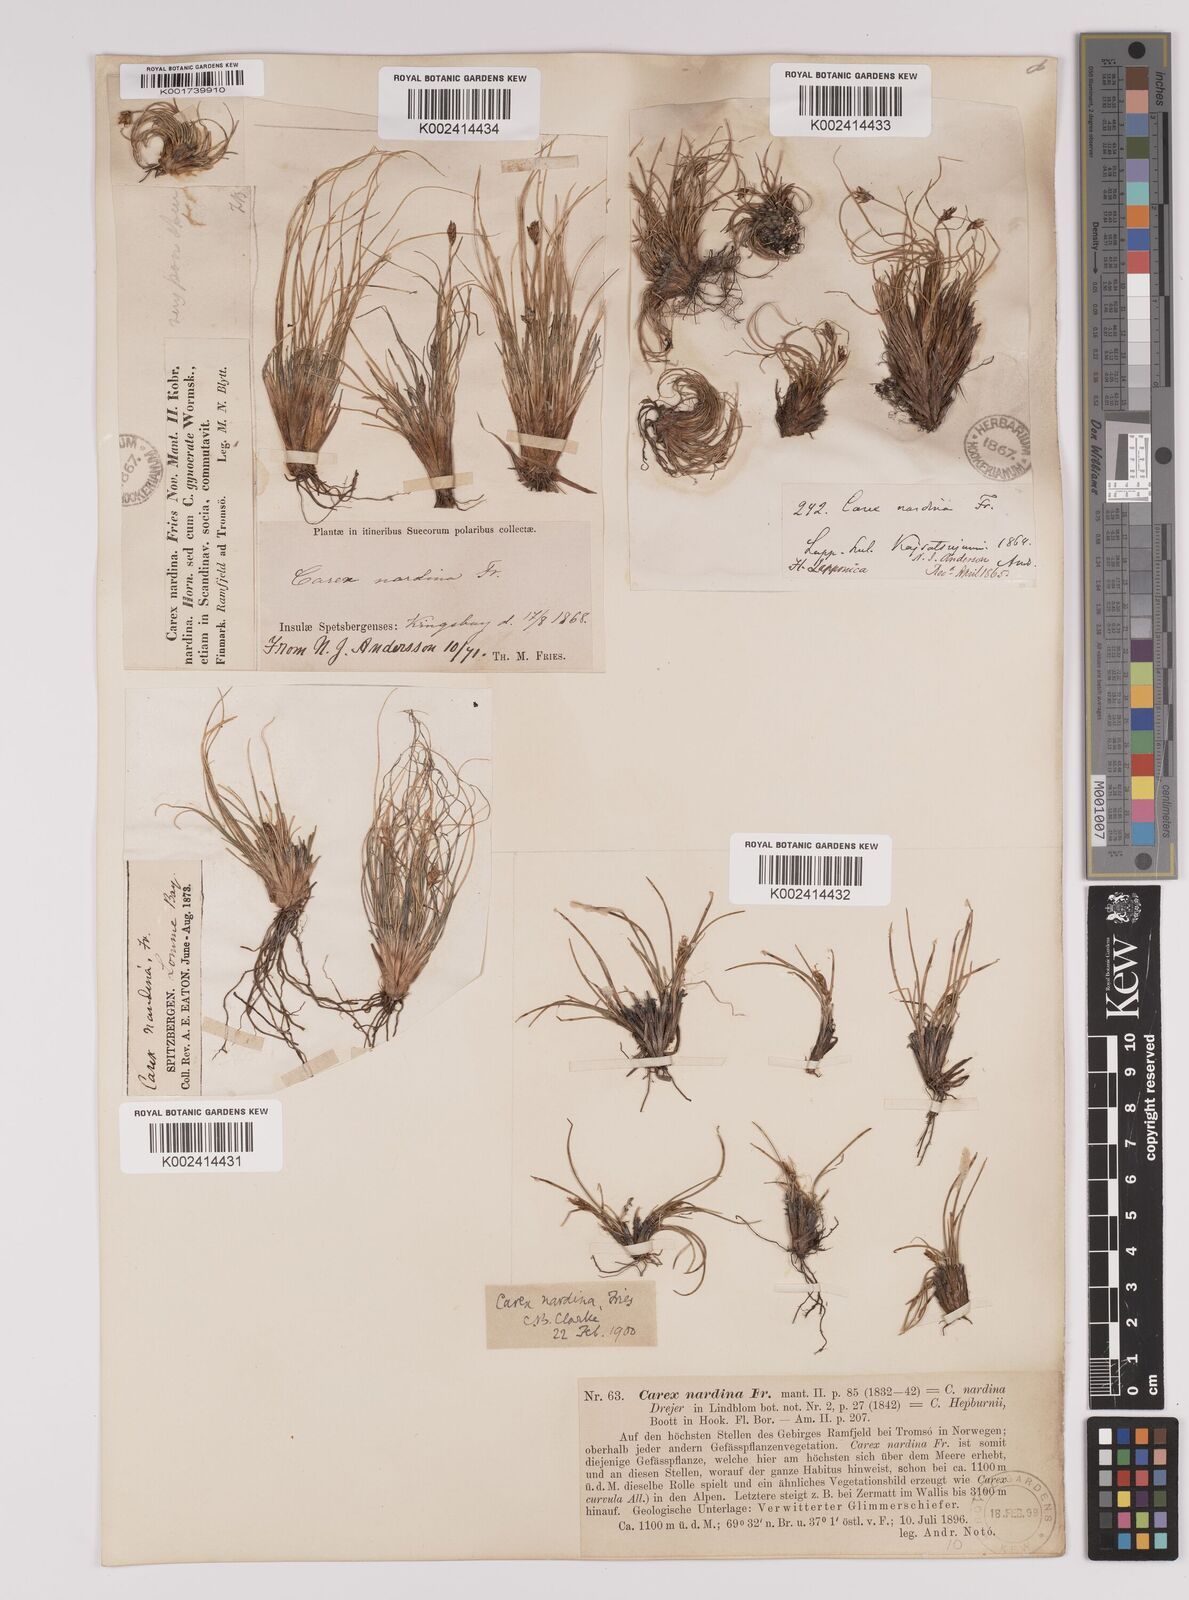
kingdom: Plantae
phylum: Tracheophyta
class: Liliopsida
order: Poales
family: Cyperaceae
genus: Carex
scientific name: Carex nardina
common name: Nard sedge
